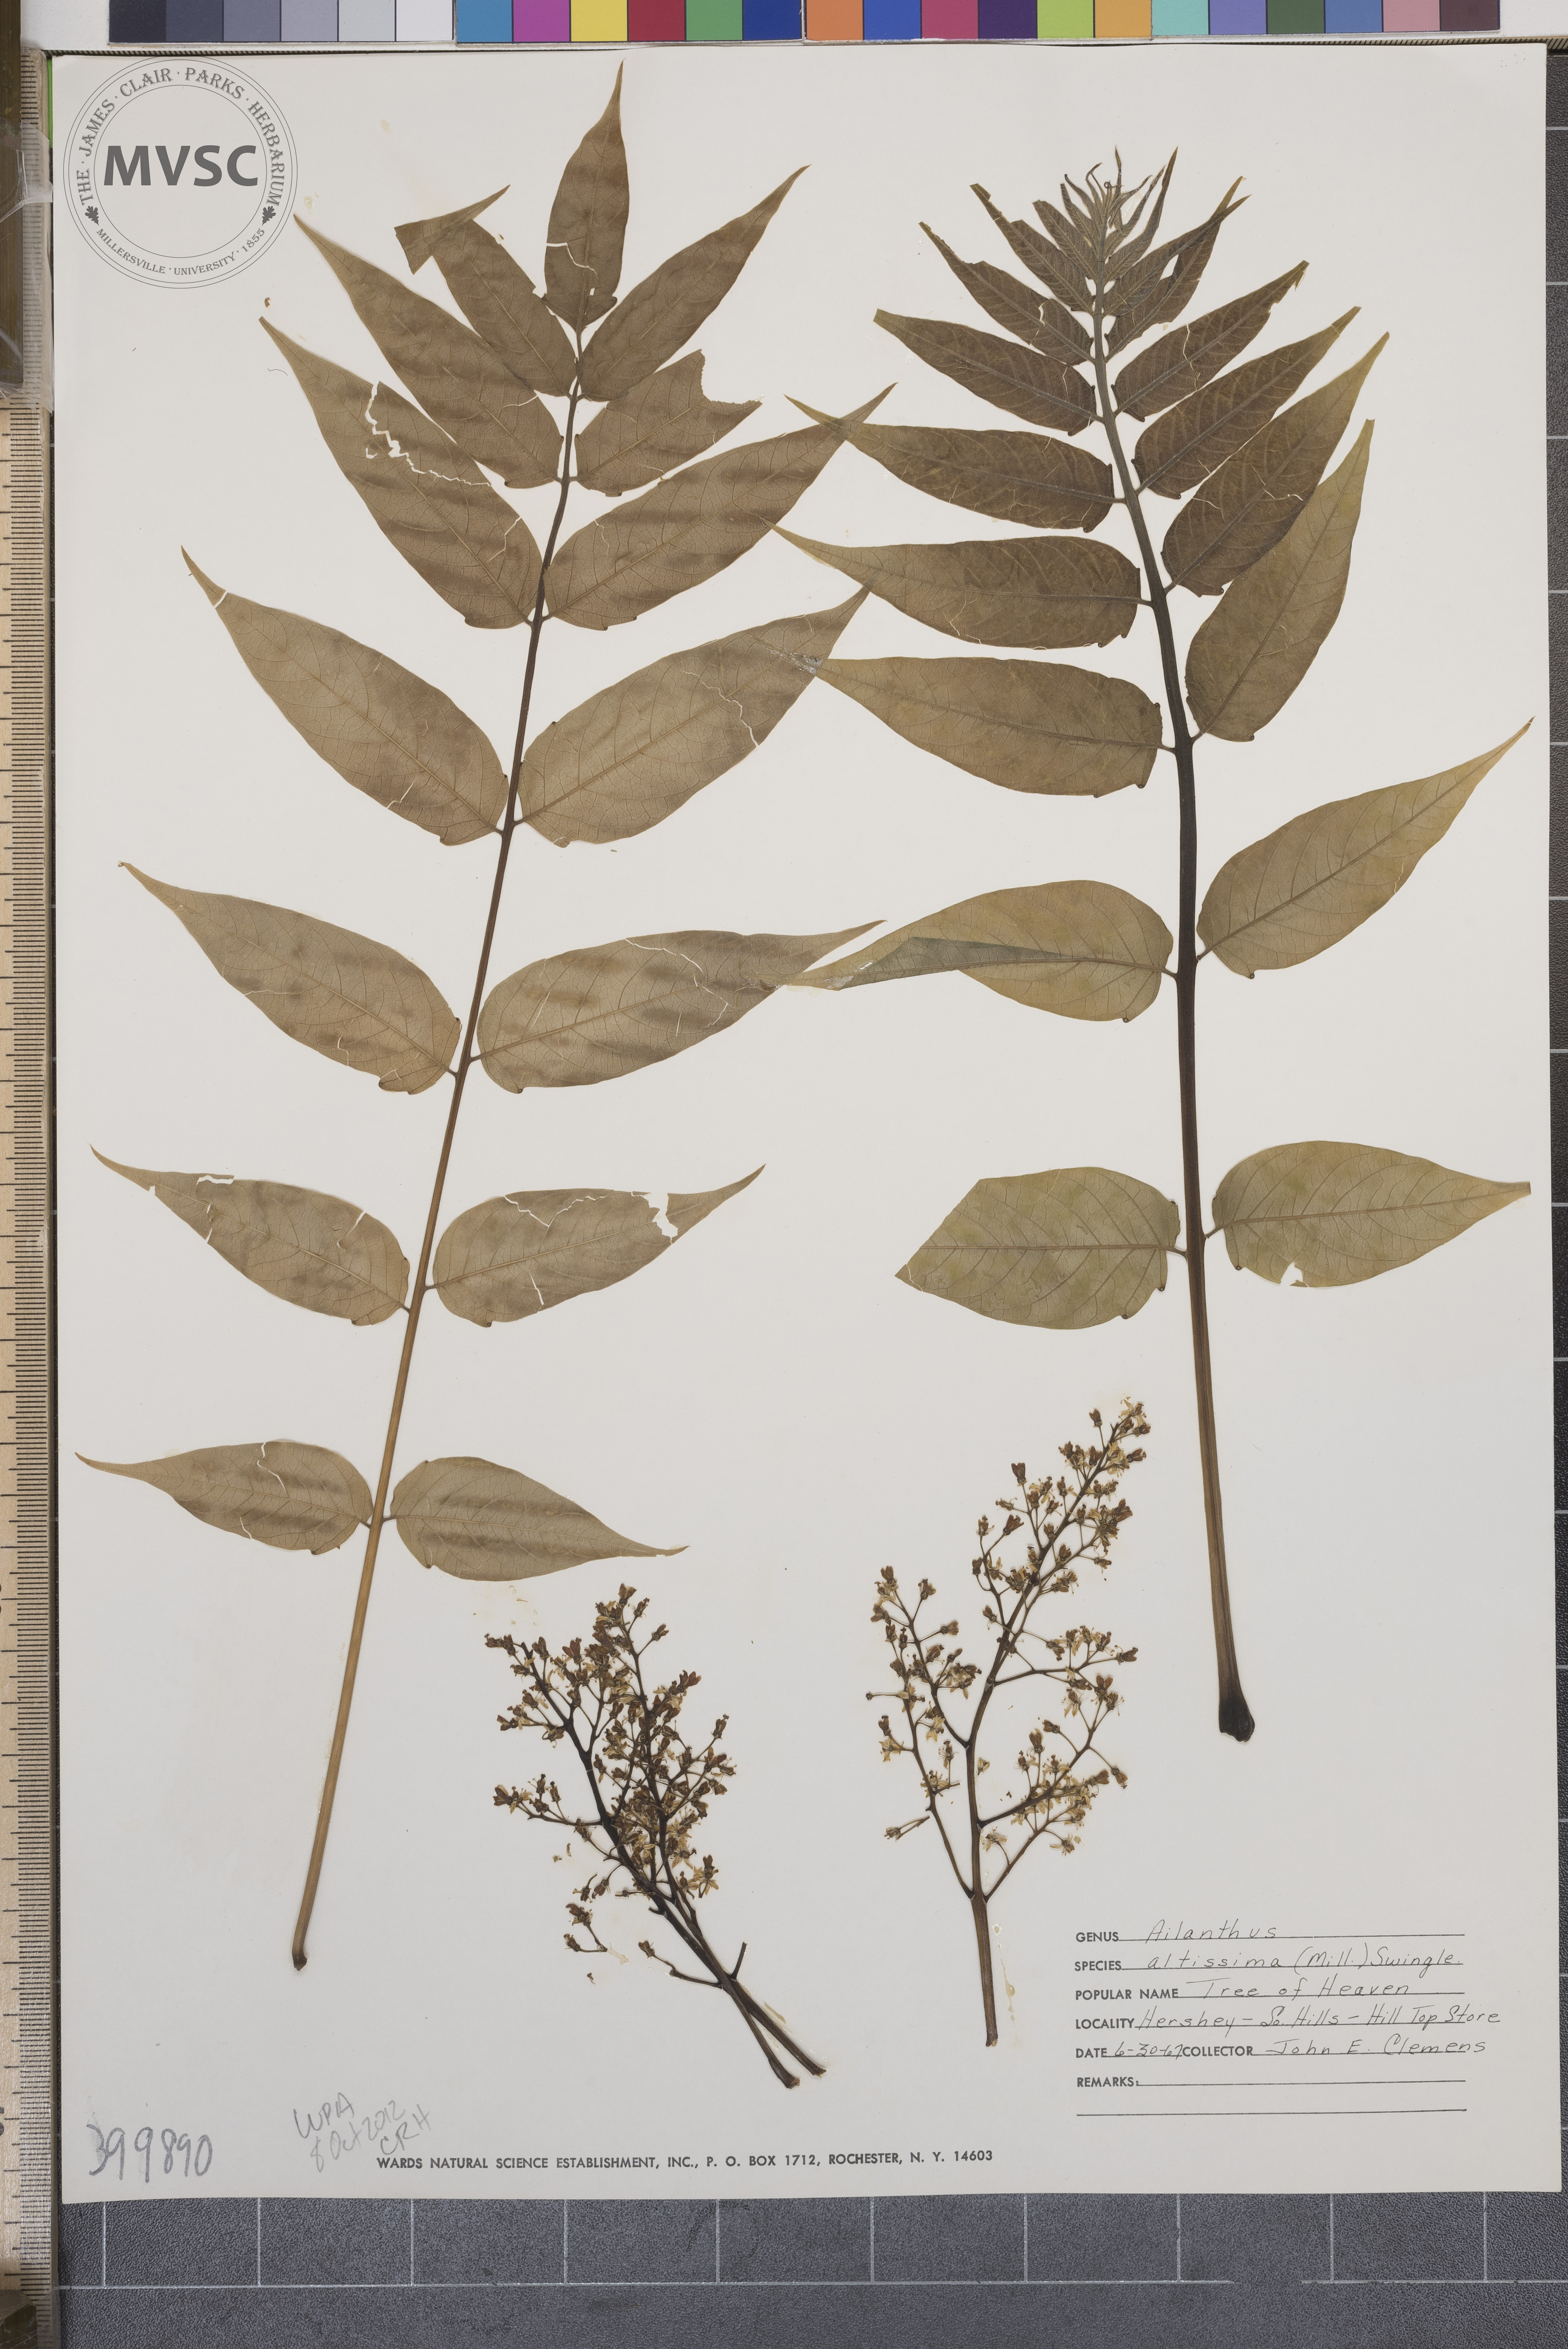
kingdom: Plantae
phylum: Tracheophyta
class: Magnoliopsida
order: Sapindales
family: Simaroubaceae
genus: Ailanthus
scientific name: Ailanthus altissima
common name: tree-of-heaven
